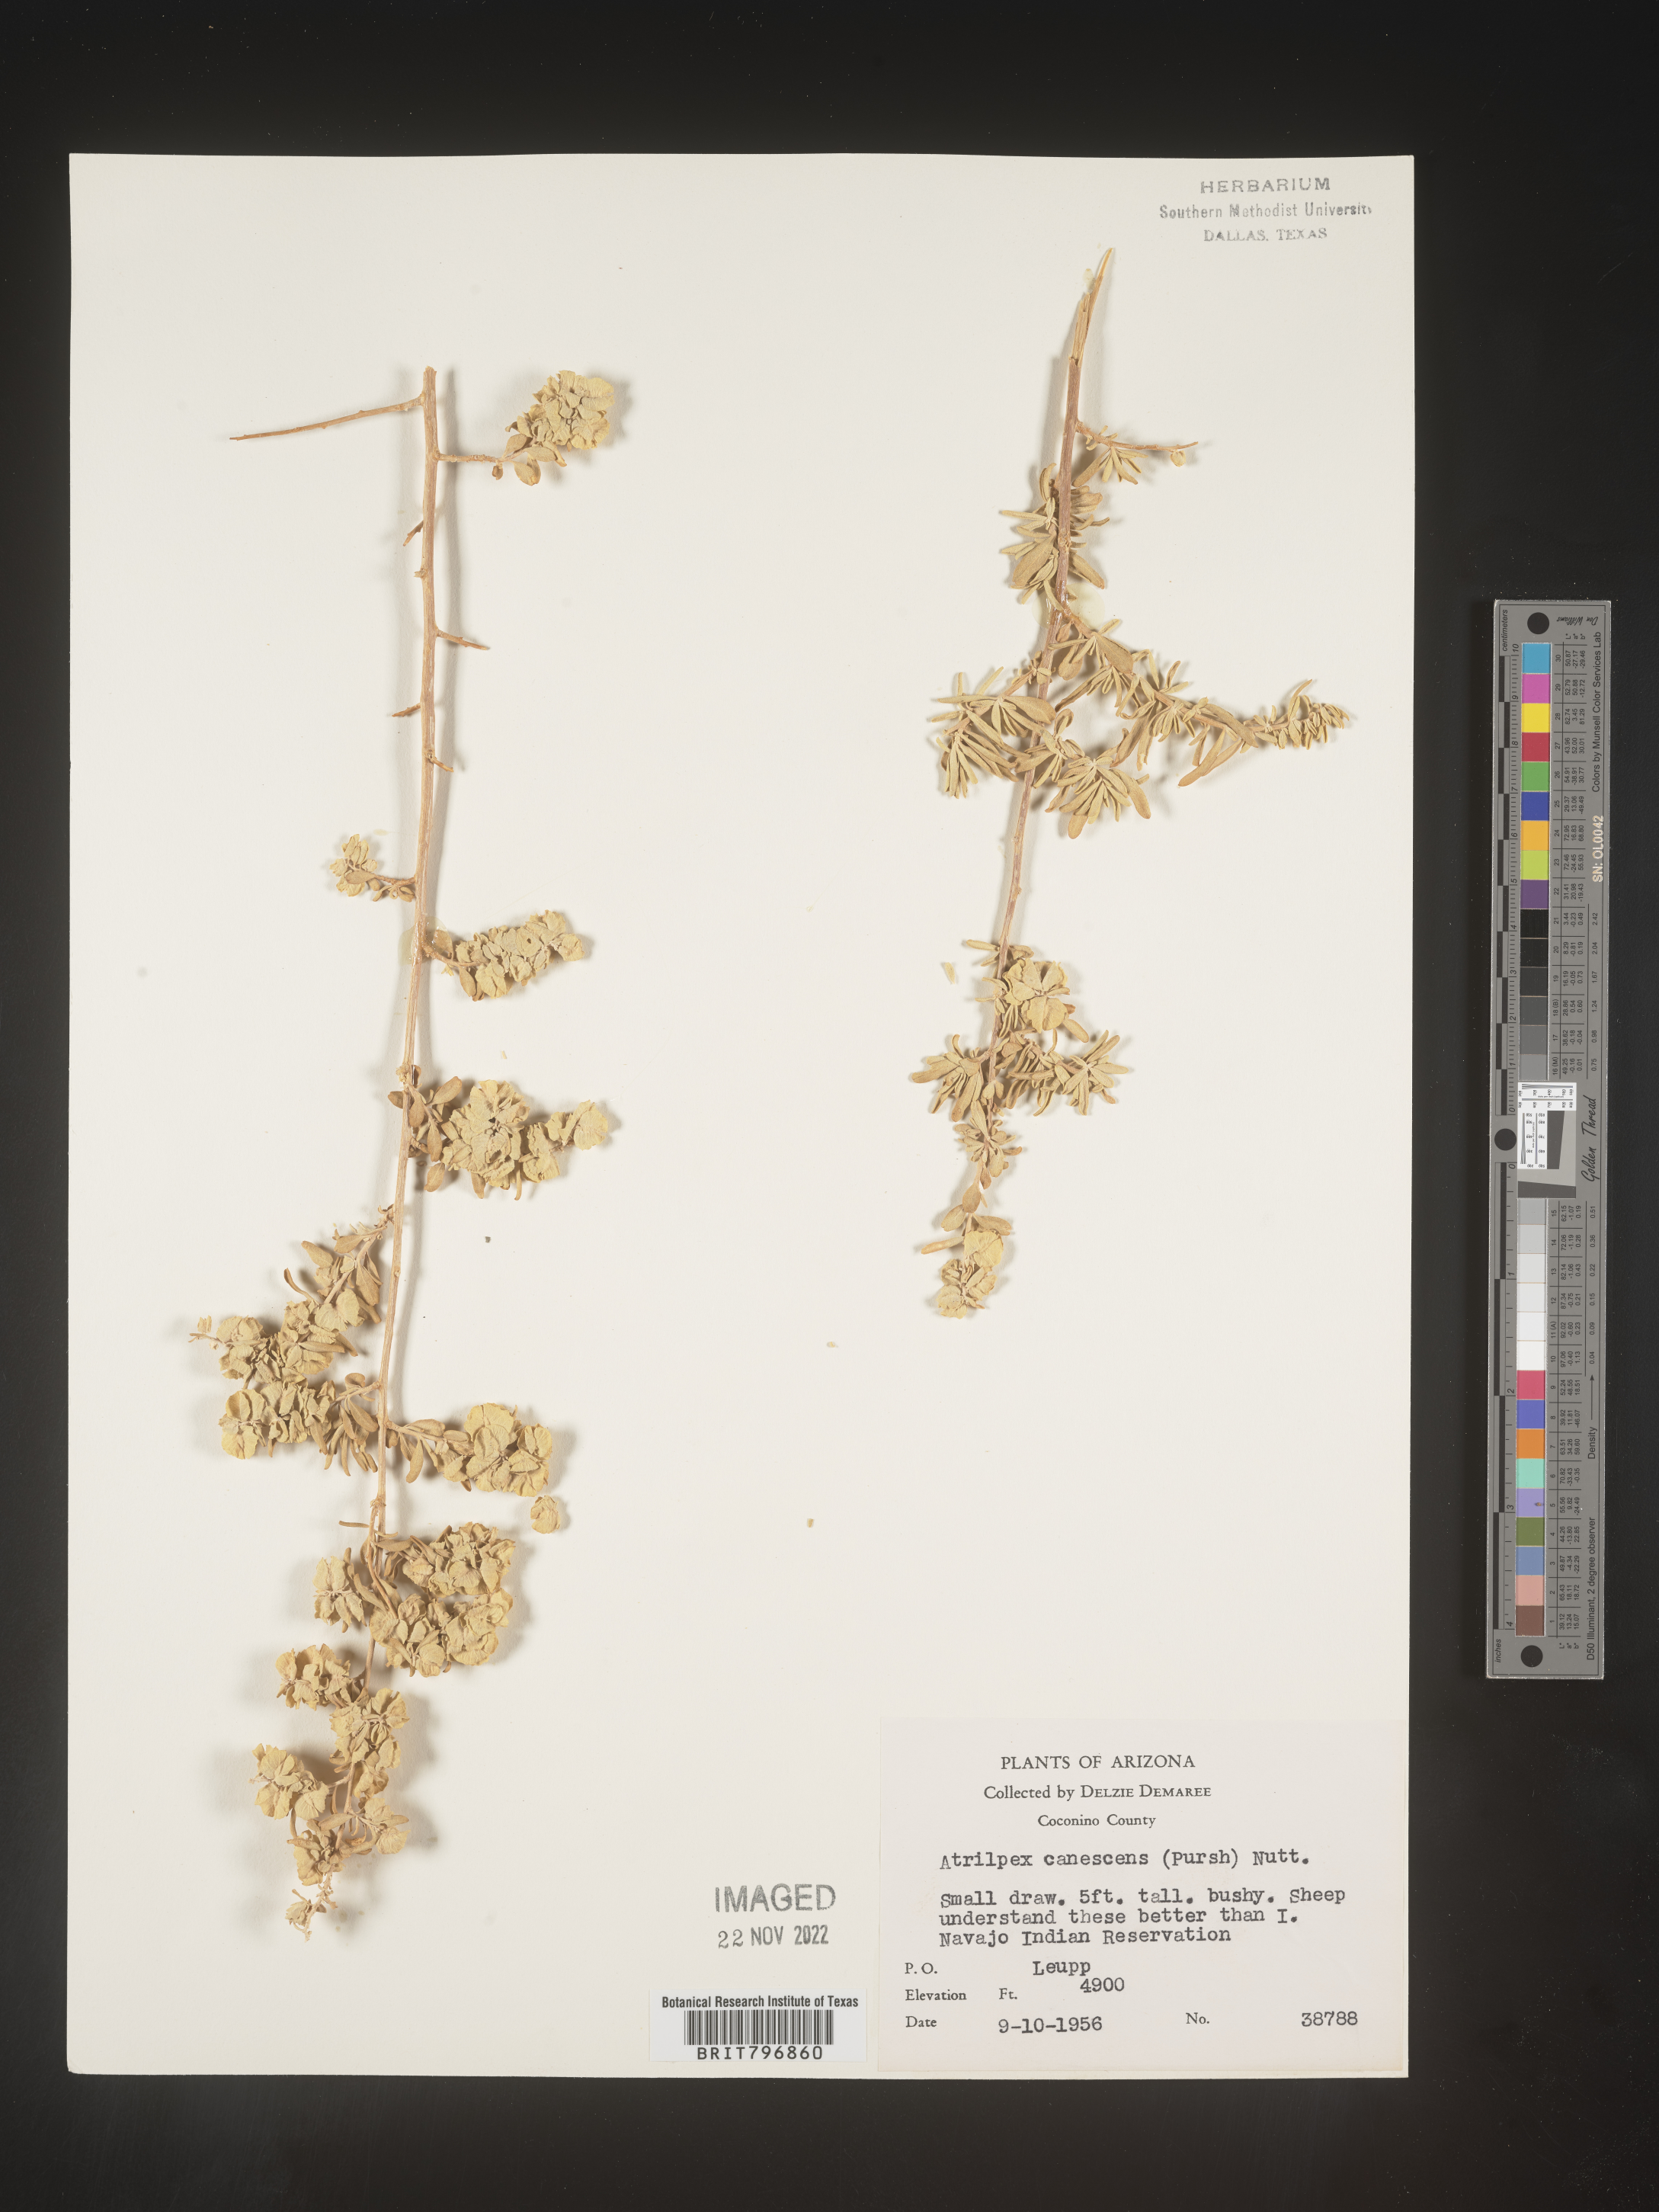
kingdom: Plantae
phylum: Tracheophyta
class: Magnoliopsida
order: Caryophyllales
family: Amaranthaceae
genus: Atriplex
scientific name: Atriplex canescens
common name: Four-wing saltbush
